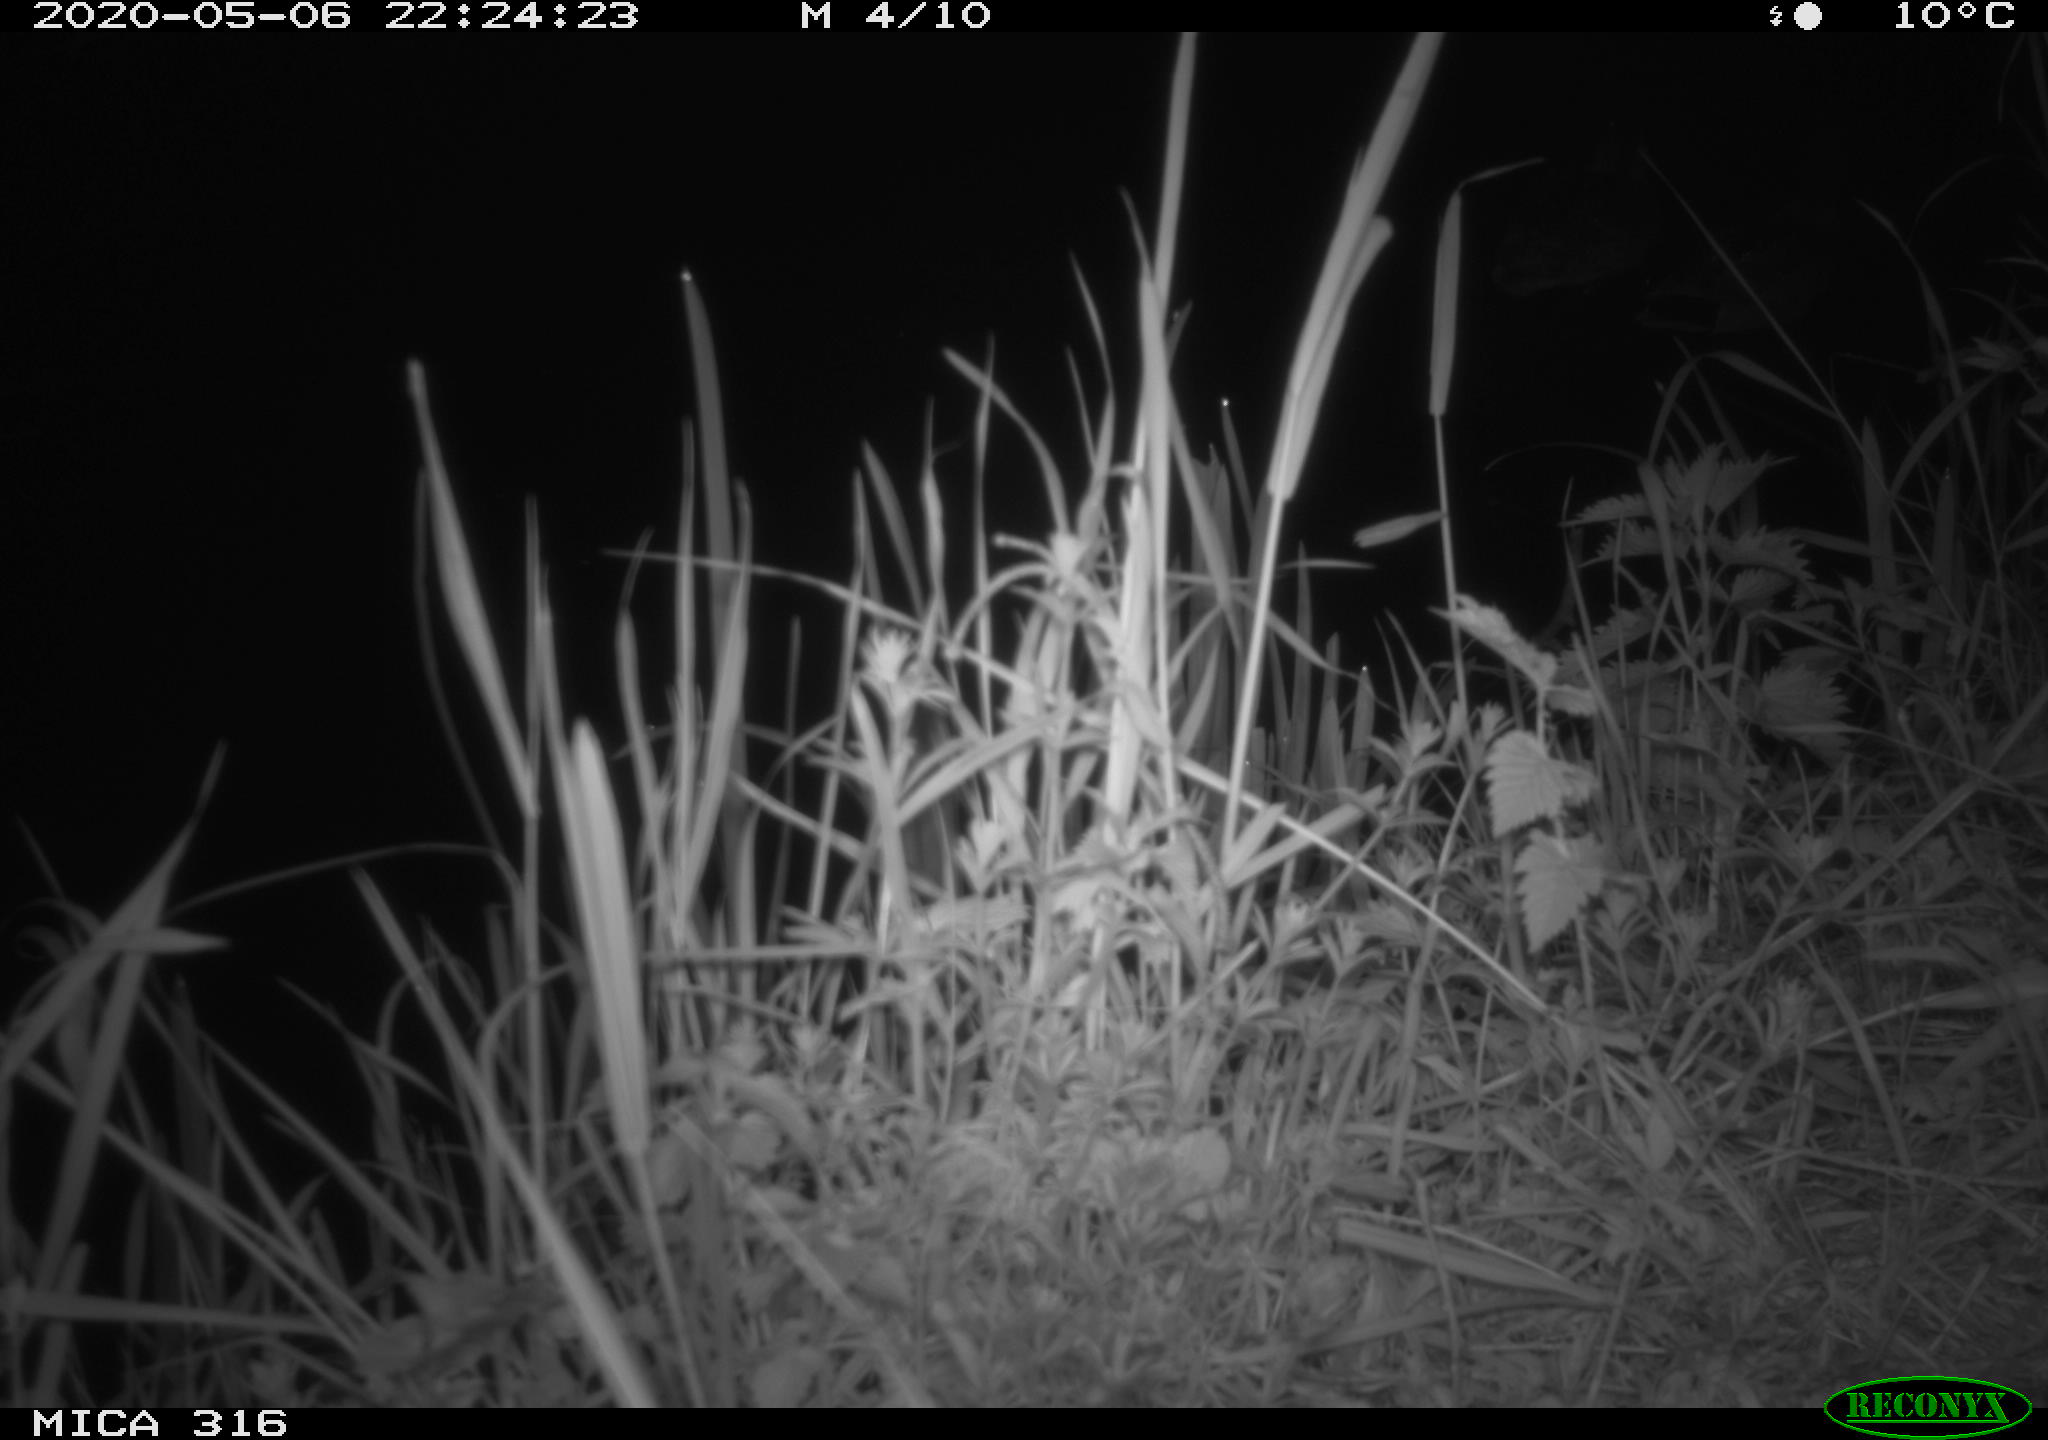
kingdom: Animalia
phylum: Chordata
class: Aves
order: Anseriformes
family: Anatidae
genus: Anas
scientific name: Anas platyrhynchos
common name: Mallard
